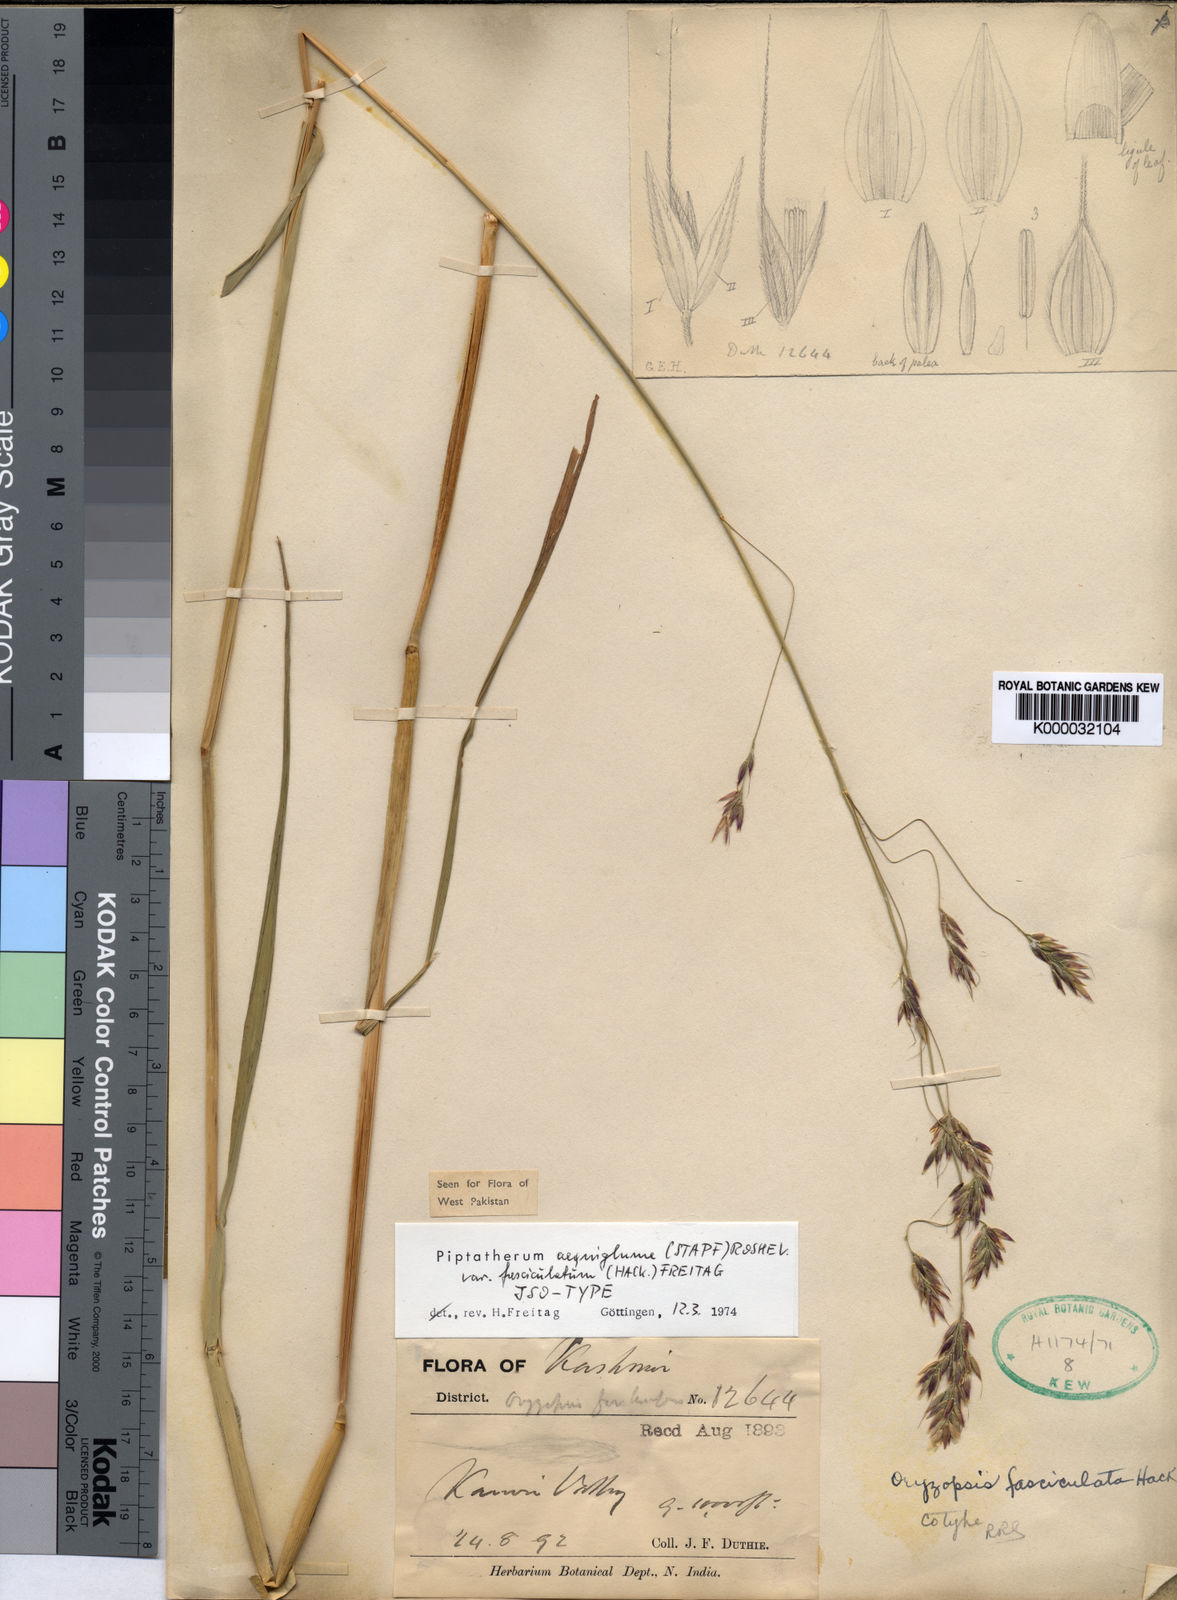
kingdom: Plantae
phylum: Tracheophyta
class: Liliopsida
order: Poales
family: Poaceae
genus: Oryzopsis
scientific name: Oryzopsis
